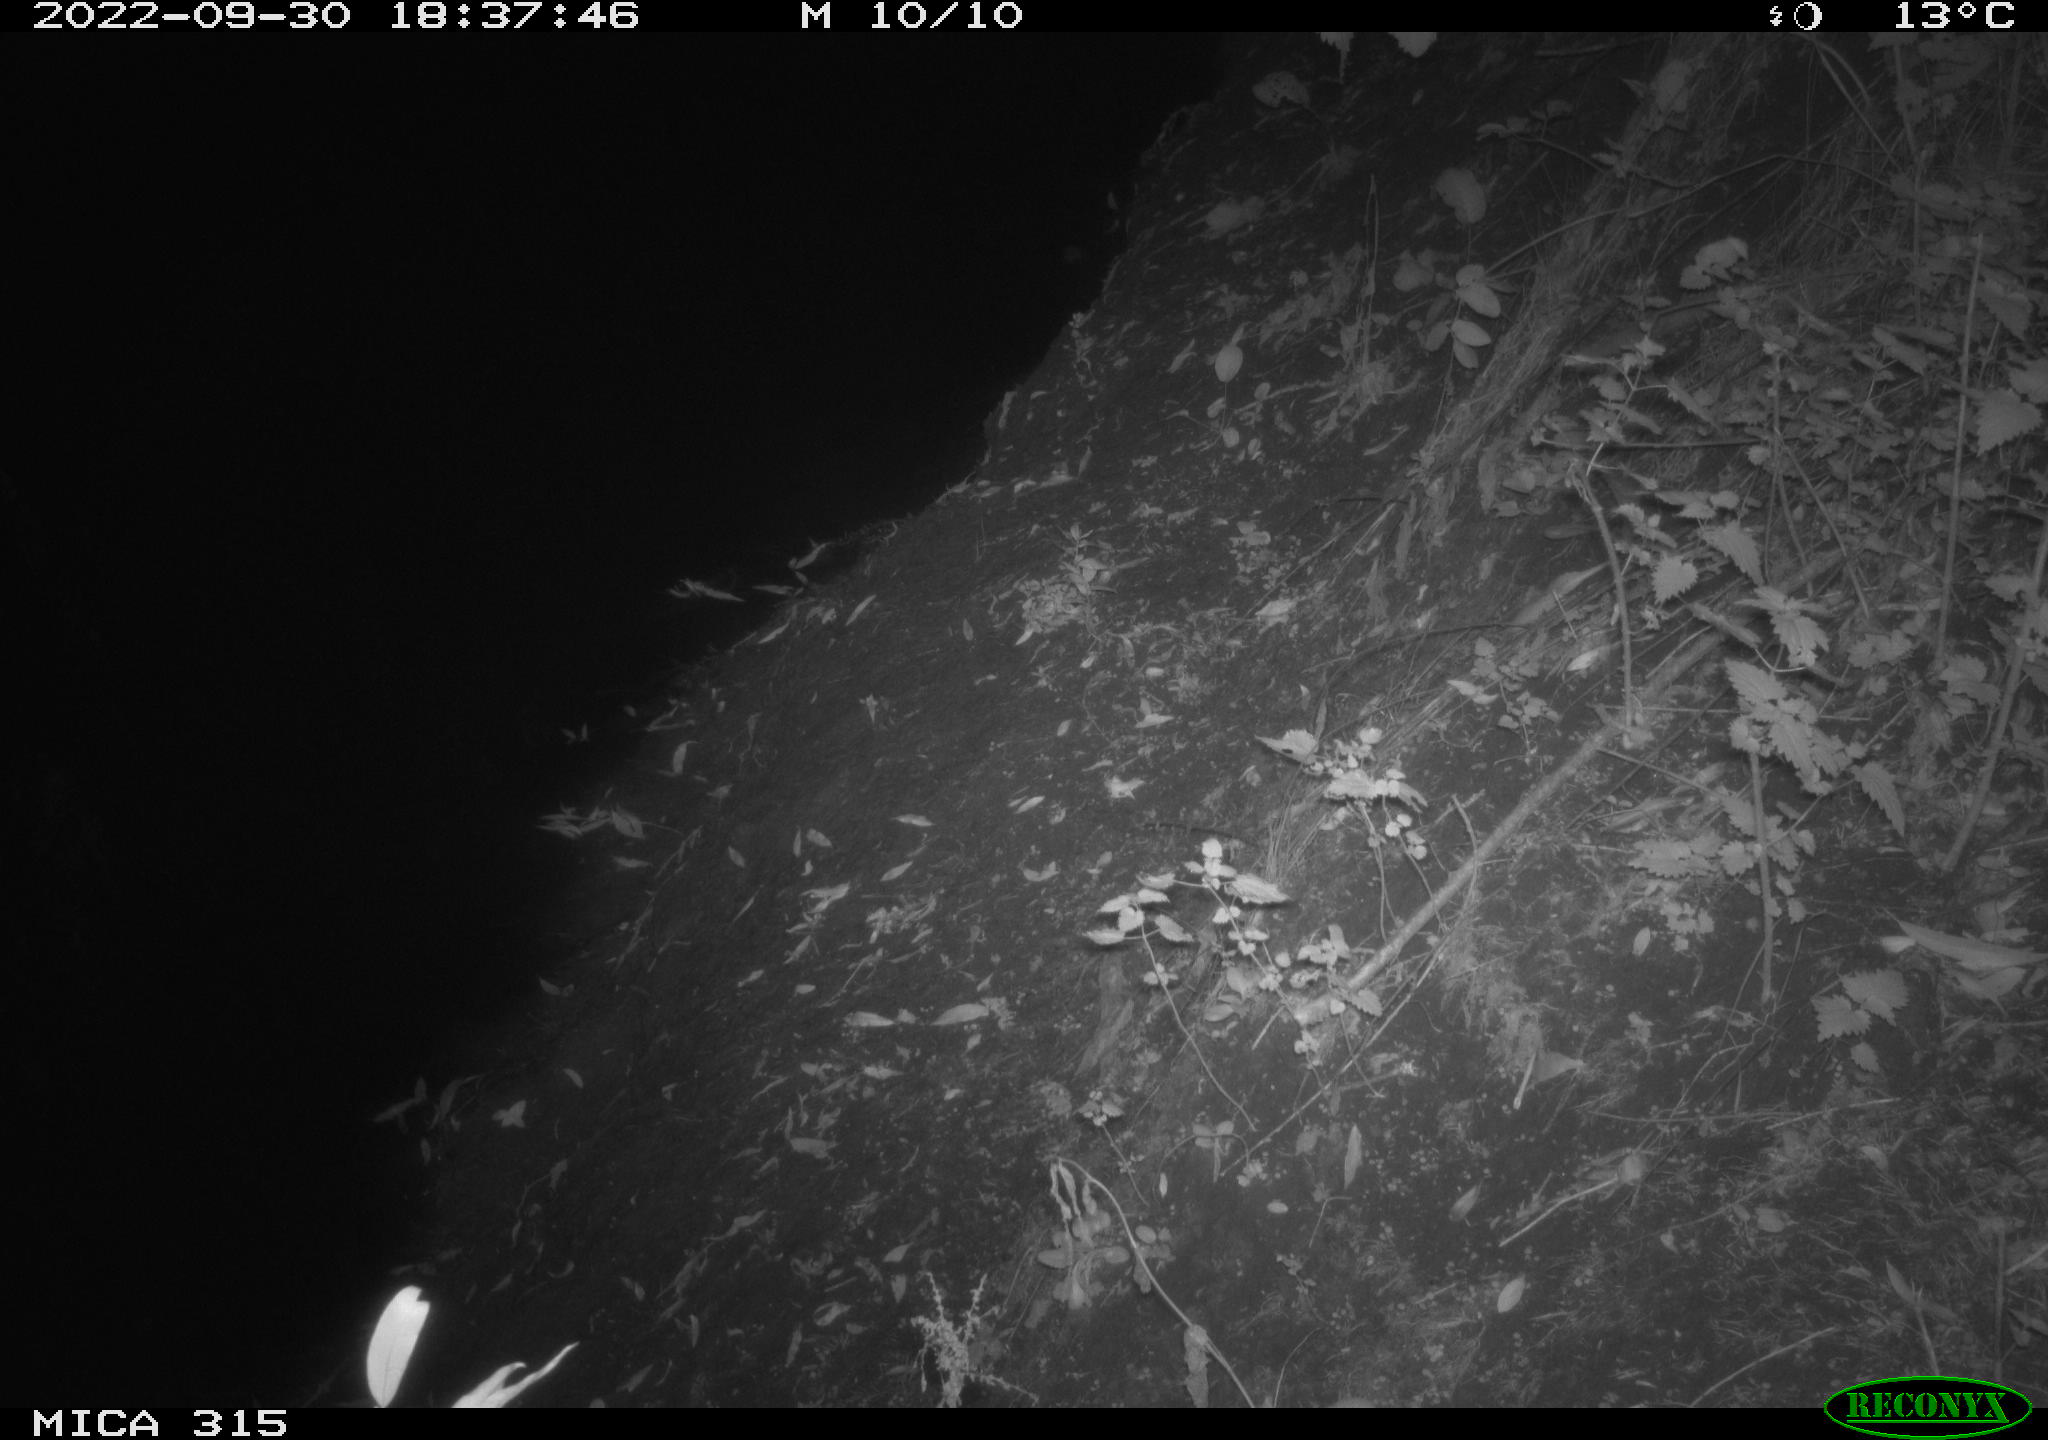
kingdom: Animalia
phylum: Chordata
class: Mammalia
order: Carnivora
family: Canidae
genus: Vulpes
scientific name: Vulpes vulpes
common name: Red fox
